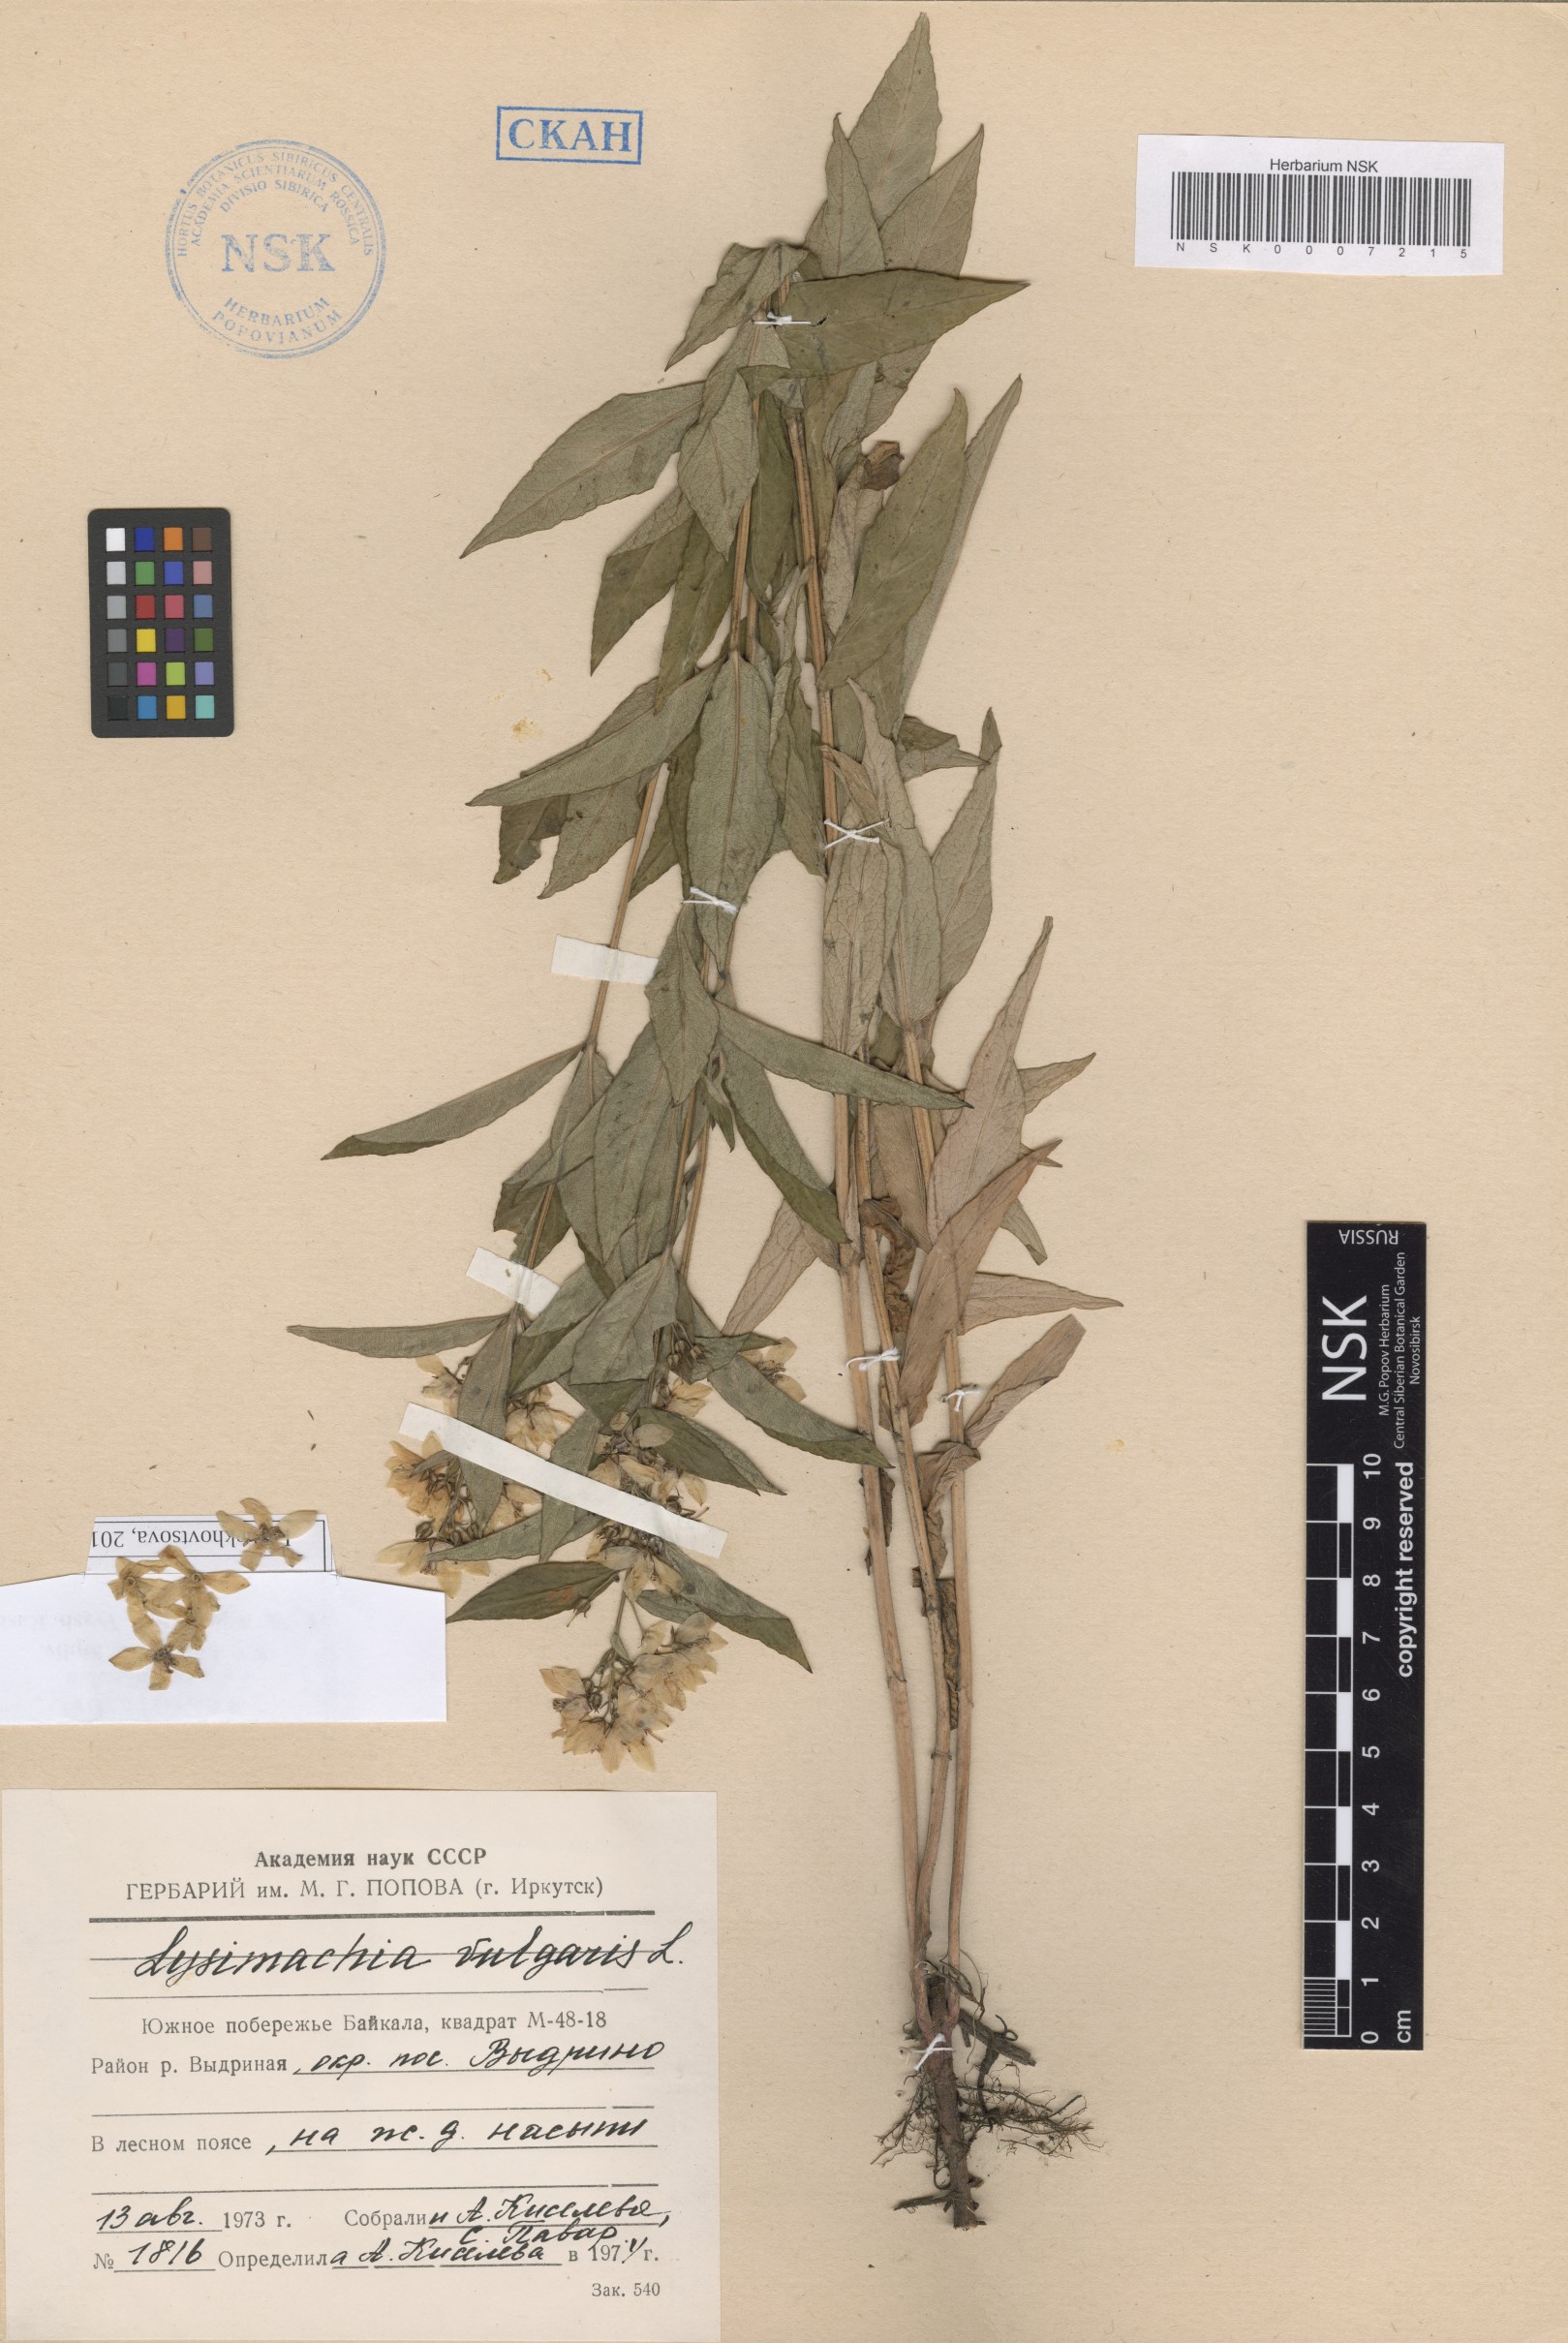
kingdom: Plantae
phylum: Tracheophyta
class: Magnoliopsida
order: Ericales
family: Primulaceae
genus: Lysimachia
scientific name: Lysimachia vulgaris
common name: Yellow loosestrife
